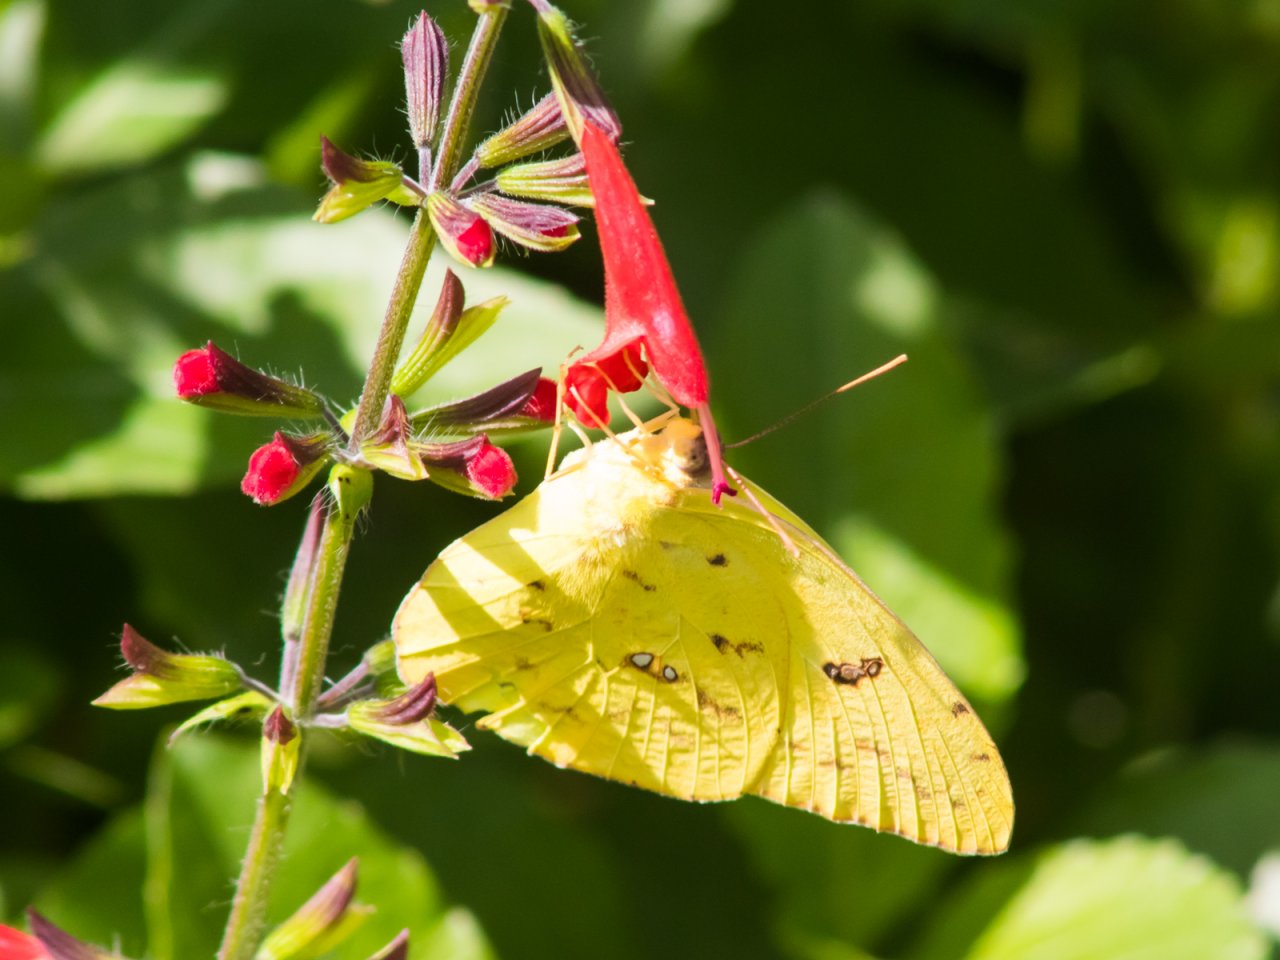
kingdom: Animalia
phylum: Arthropoda
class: Insecta
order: Lepidoptera
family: Pieridae
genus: Phoebis
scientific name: Phoebis sennae
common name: Cloudless Sulphur
